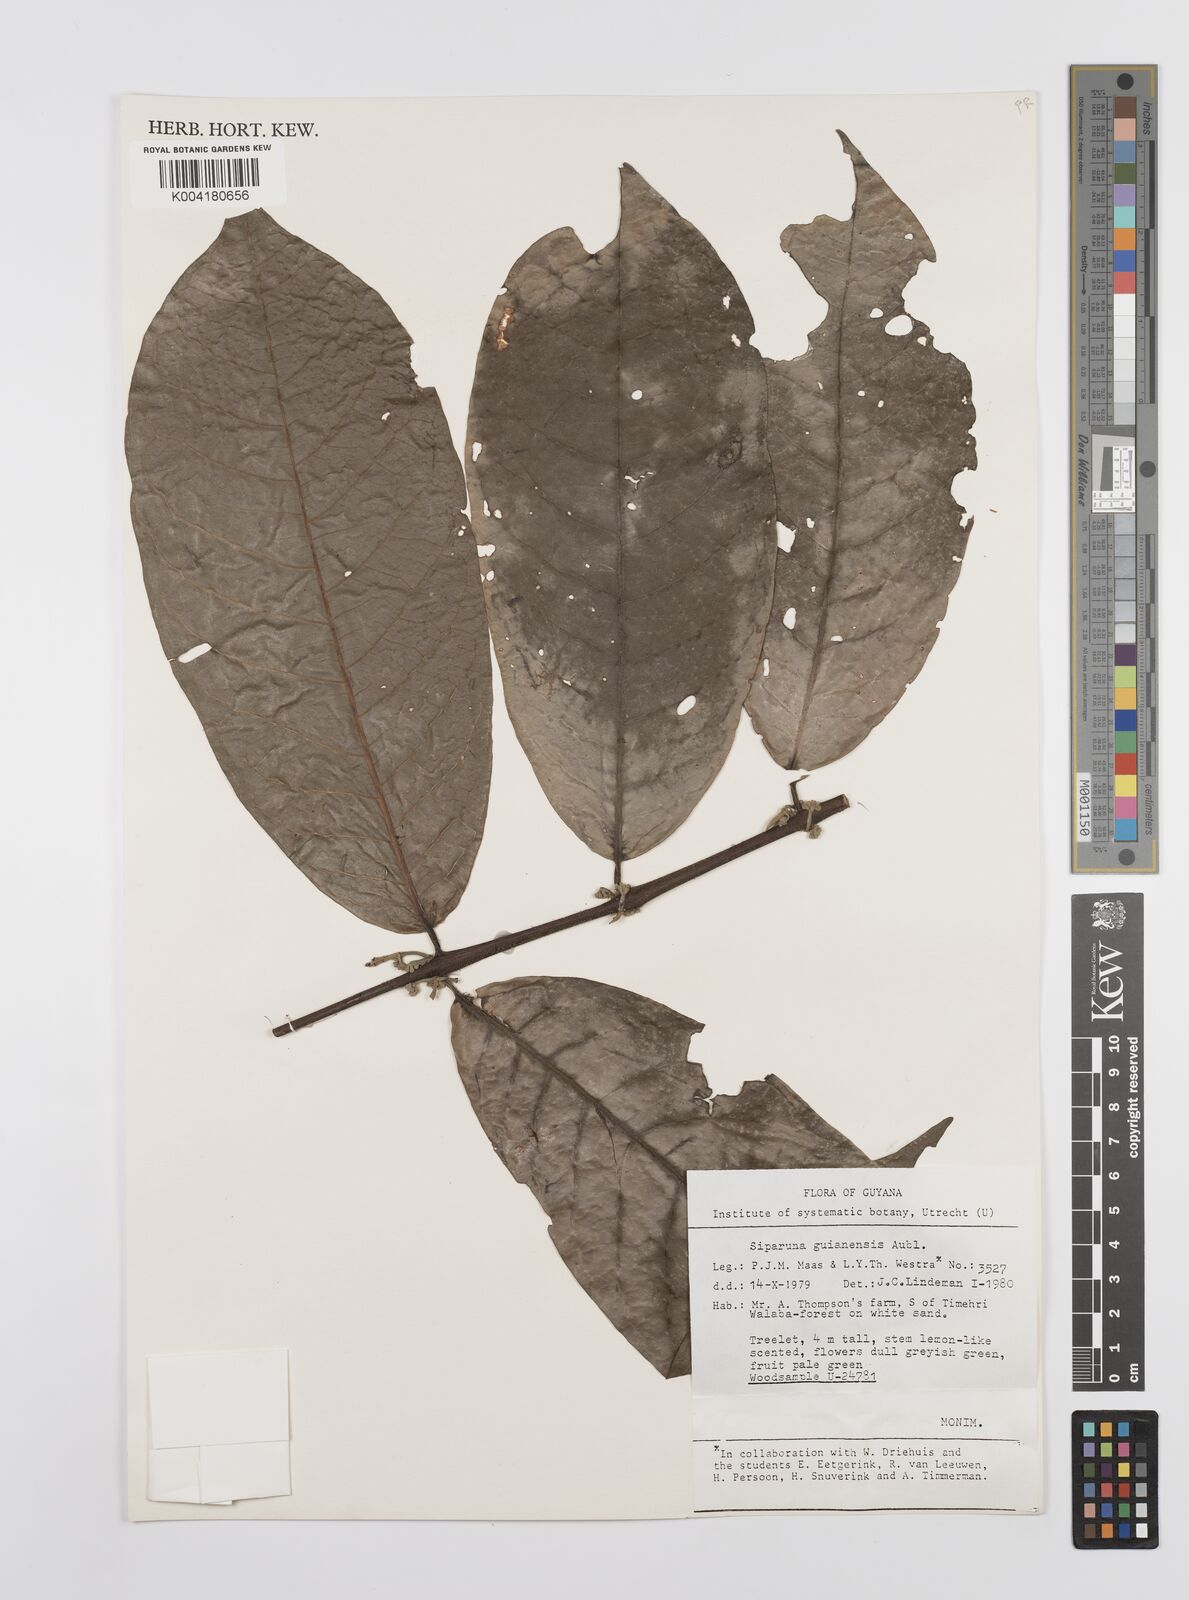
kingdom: Plantae
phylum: Tracheophyta
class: Magnoliopsida
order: Laurales
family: Siparunaceae
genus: Siparuna
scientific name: Siparuna guianensis
